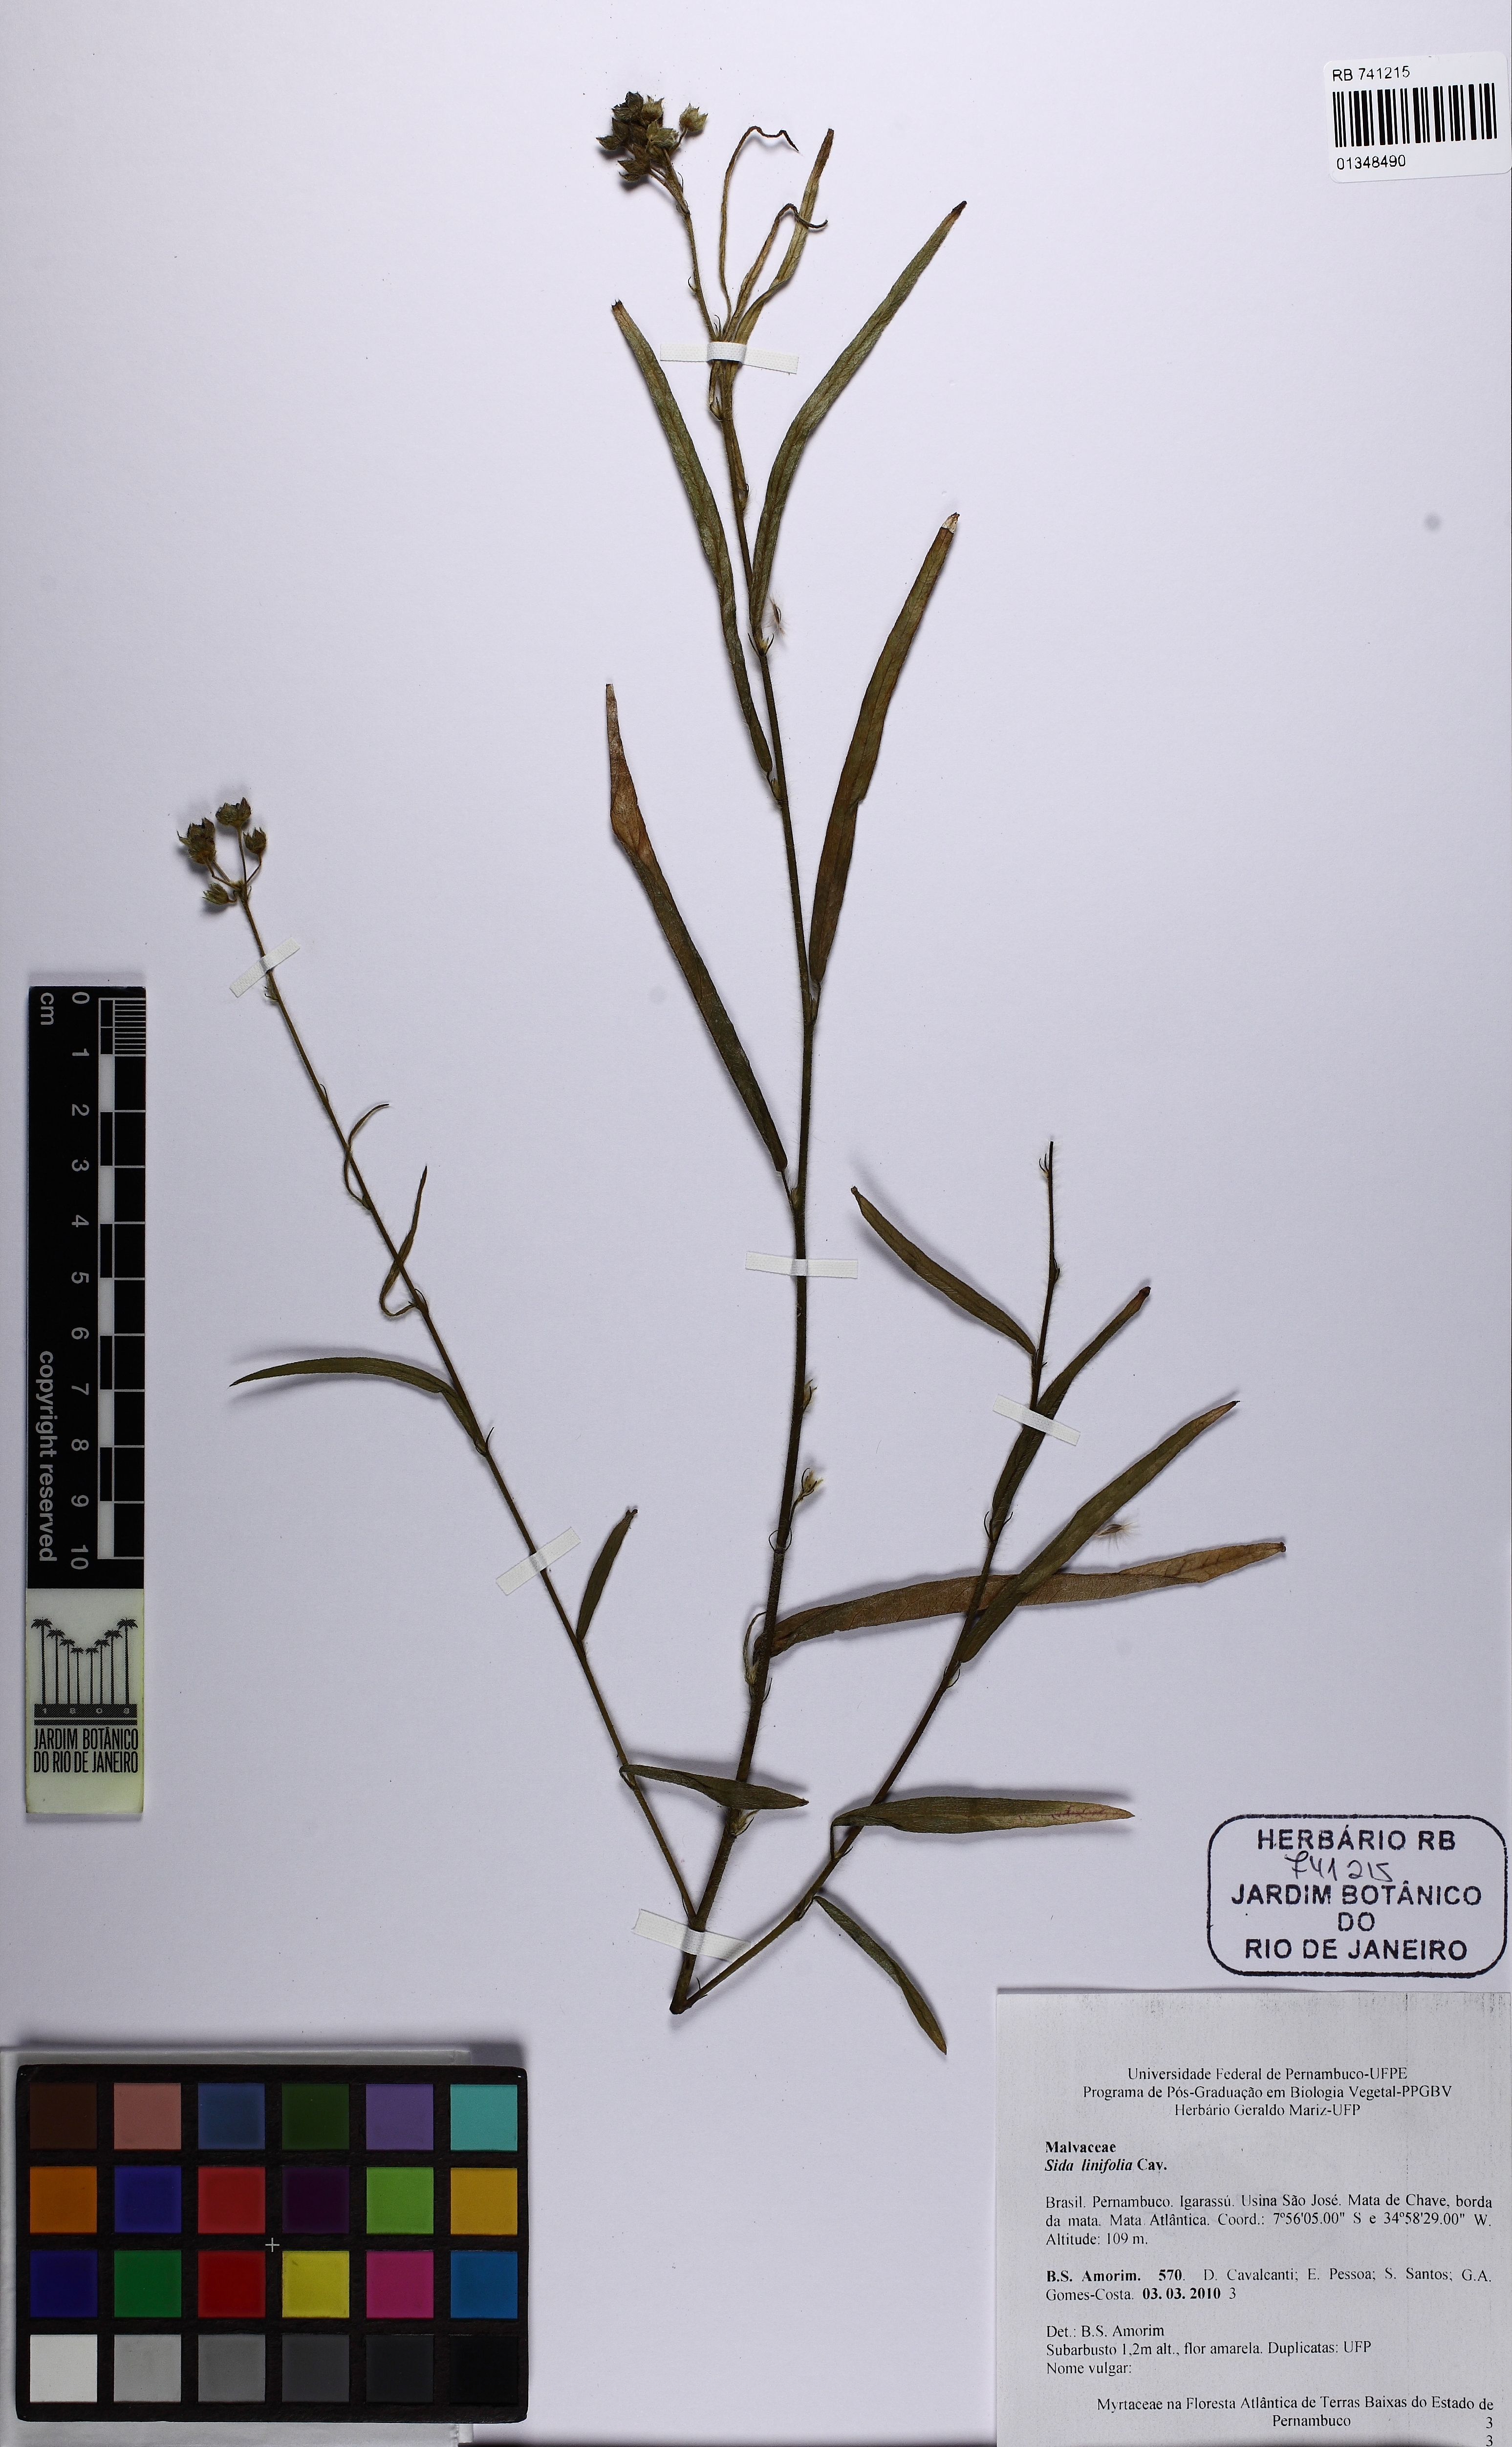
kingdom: Plantae
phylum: Tracheophyta
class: Magnoliopsida
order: Malvales
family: Malvaceae
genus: Sida
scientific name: Sida linifolia
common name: Flaxleaf fanpetals
